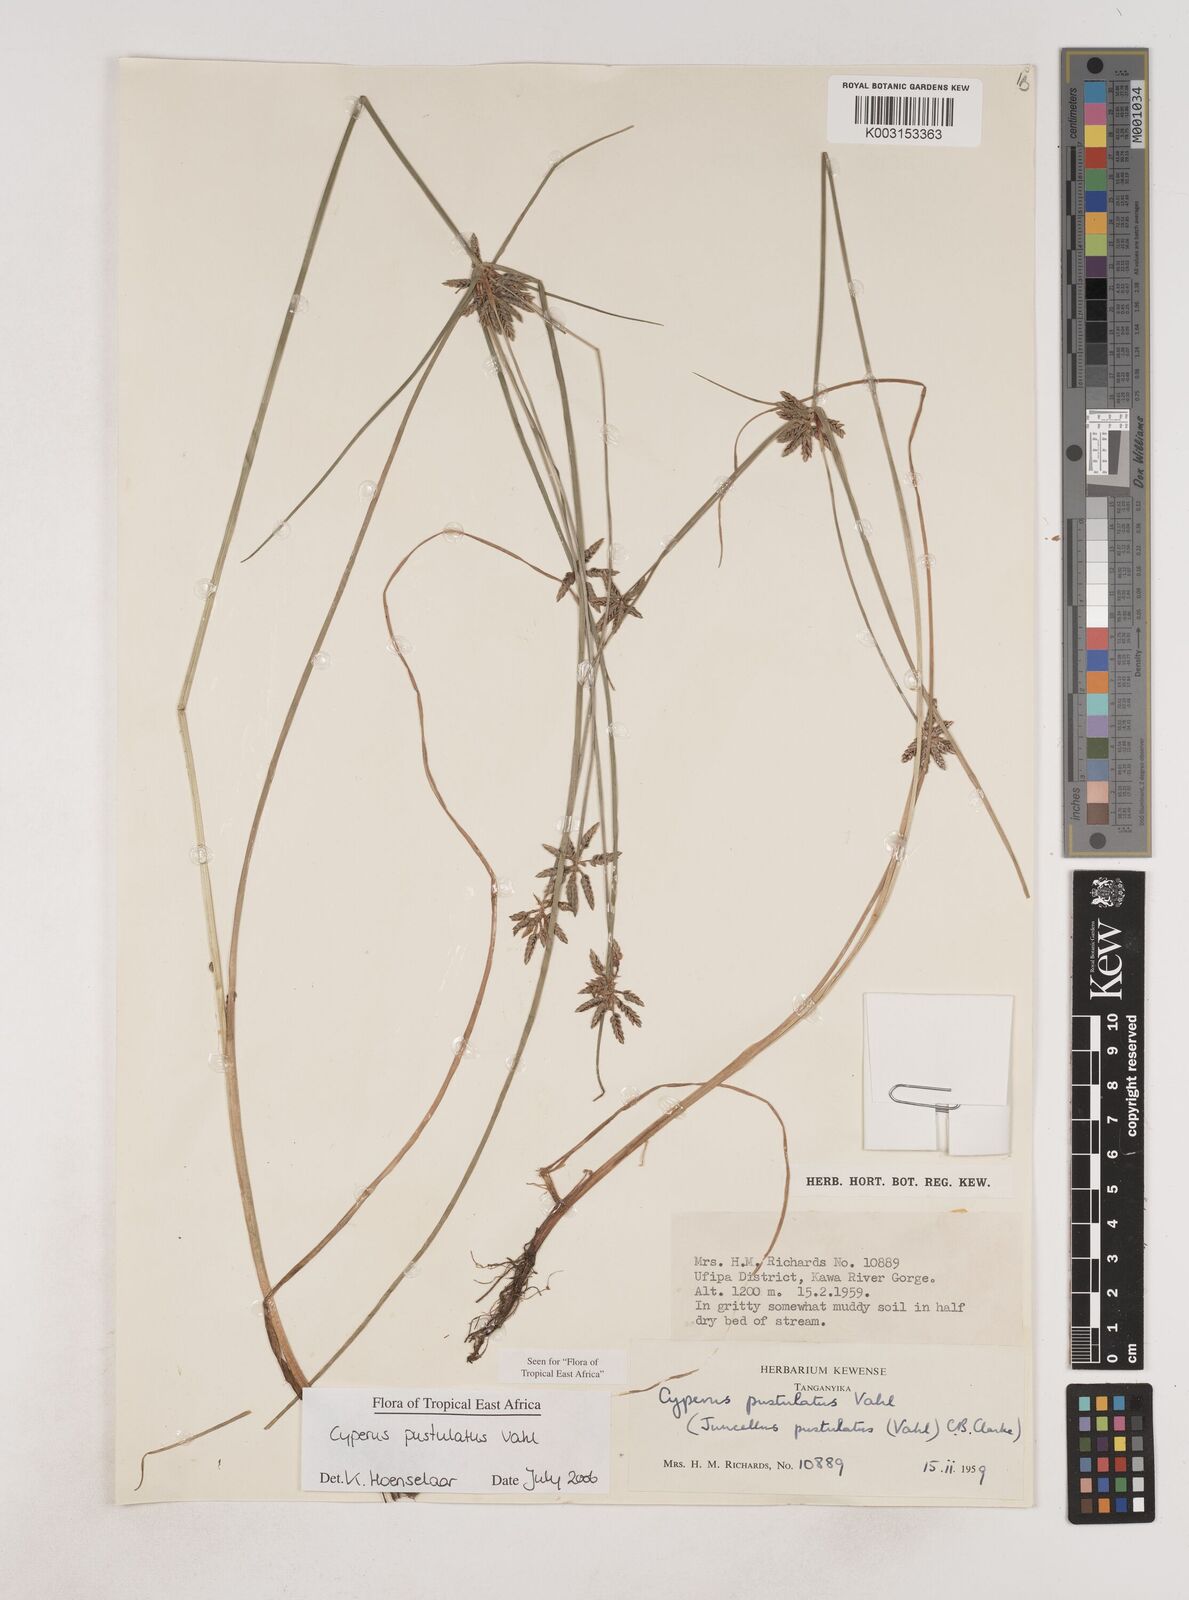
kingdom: Plantae
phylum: Tracheophyta
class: Liliopsida
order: Poales
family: Cyperaceae
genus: Cyperus
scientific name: Cyperus pustulatus
